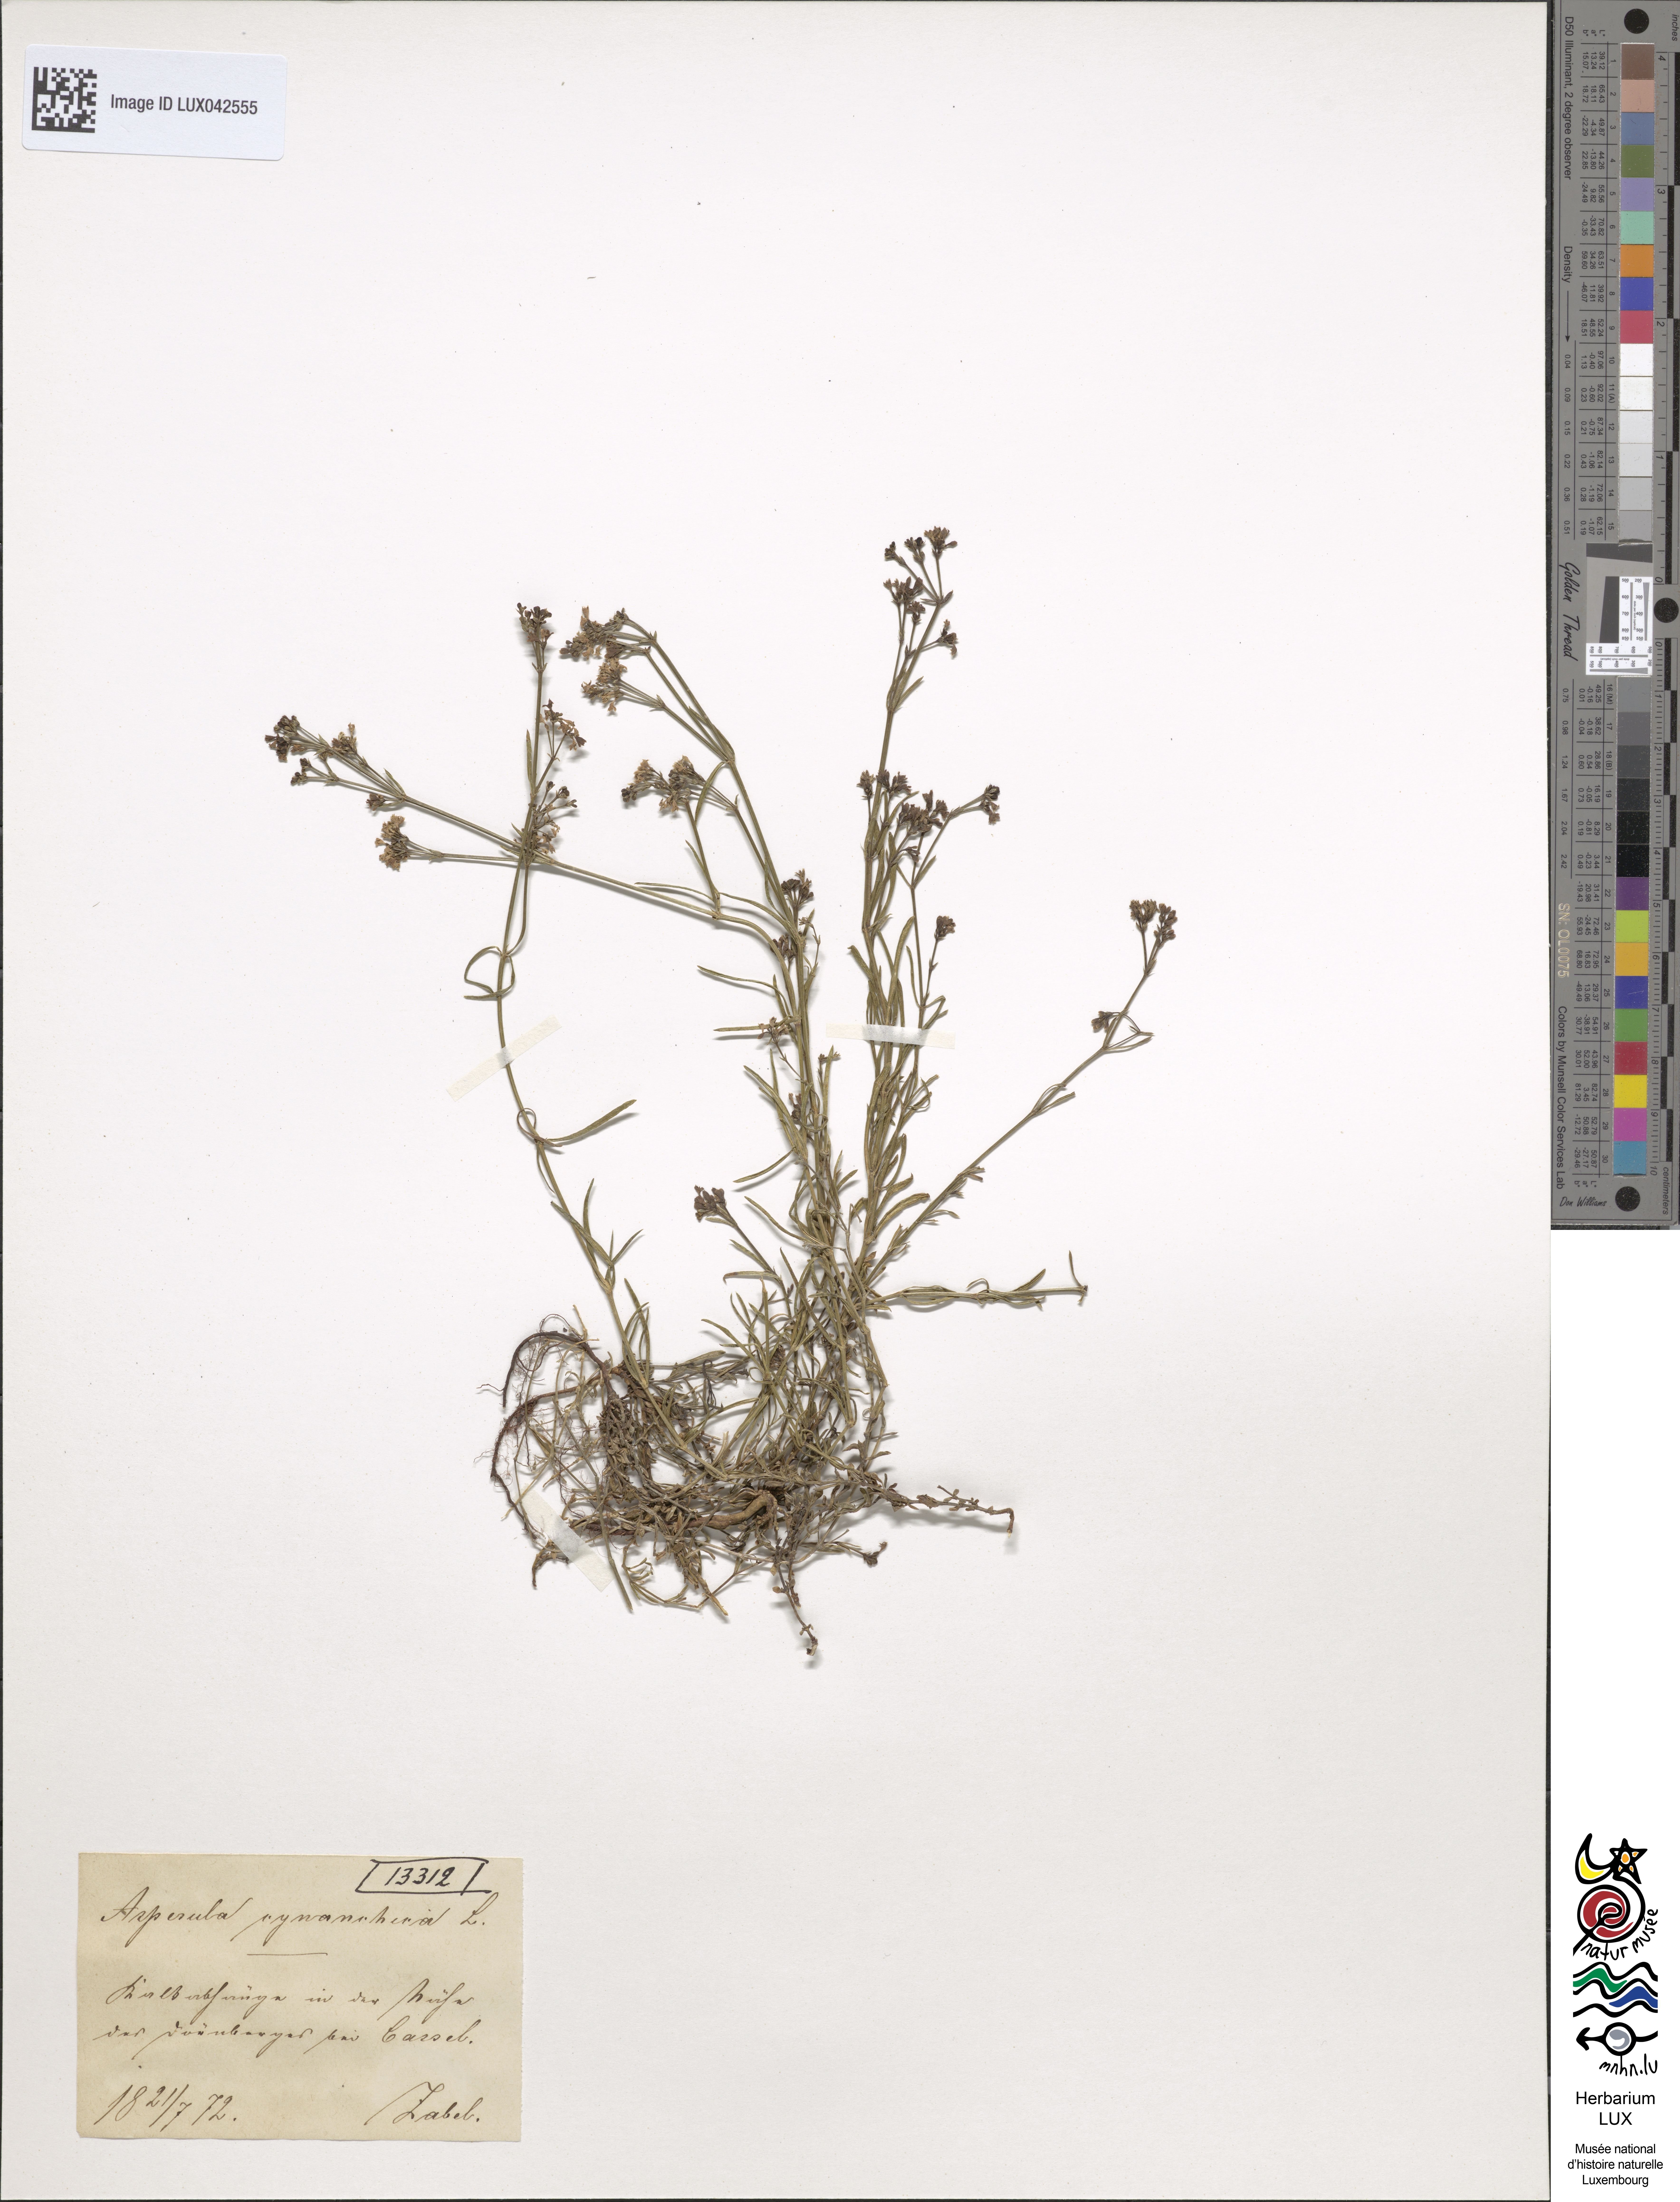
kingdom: Plantae
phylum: Tracheophyta
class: Magnoliopsida
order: Gentianales
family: Rubiaceae
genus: Cynanchica
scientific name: Cynanchica pyrenaica
